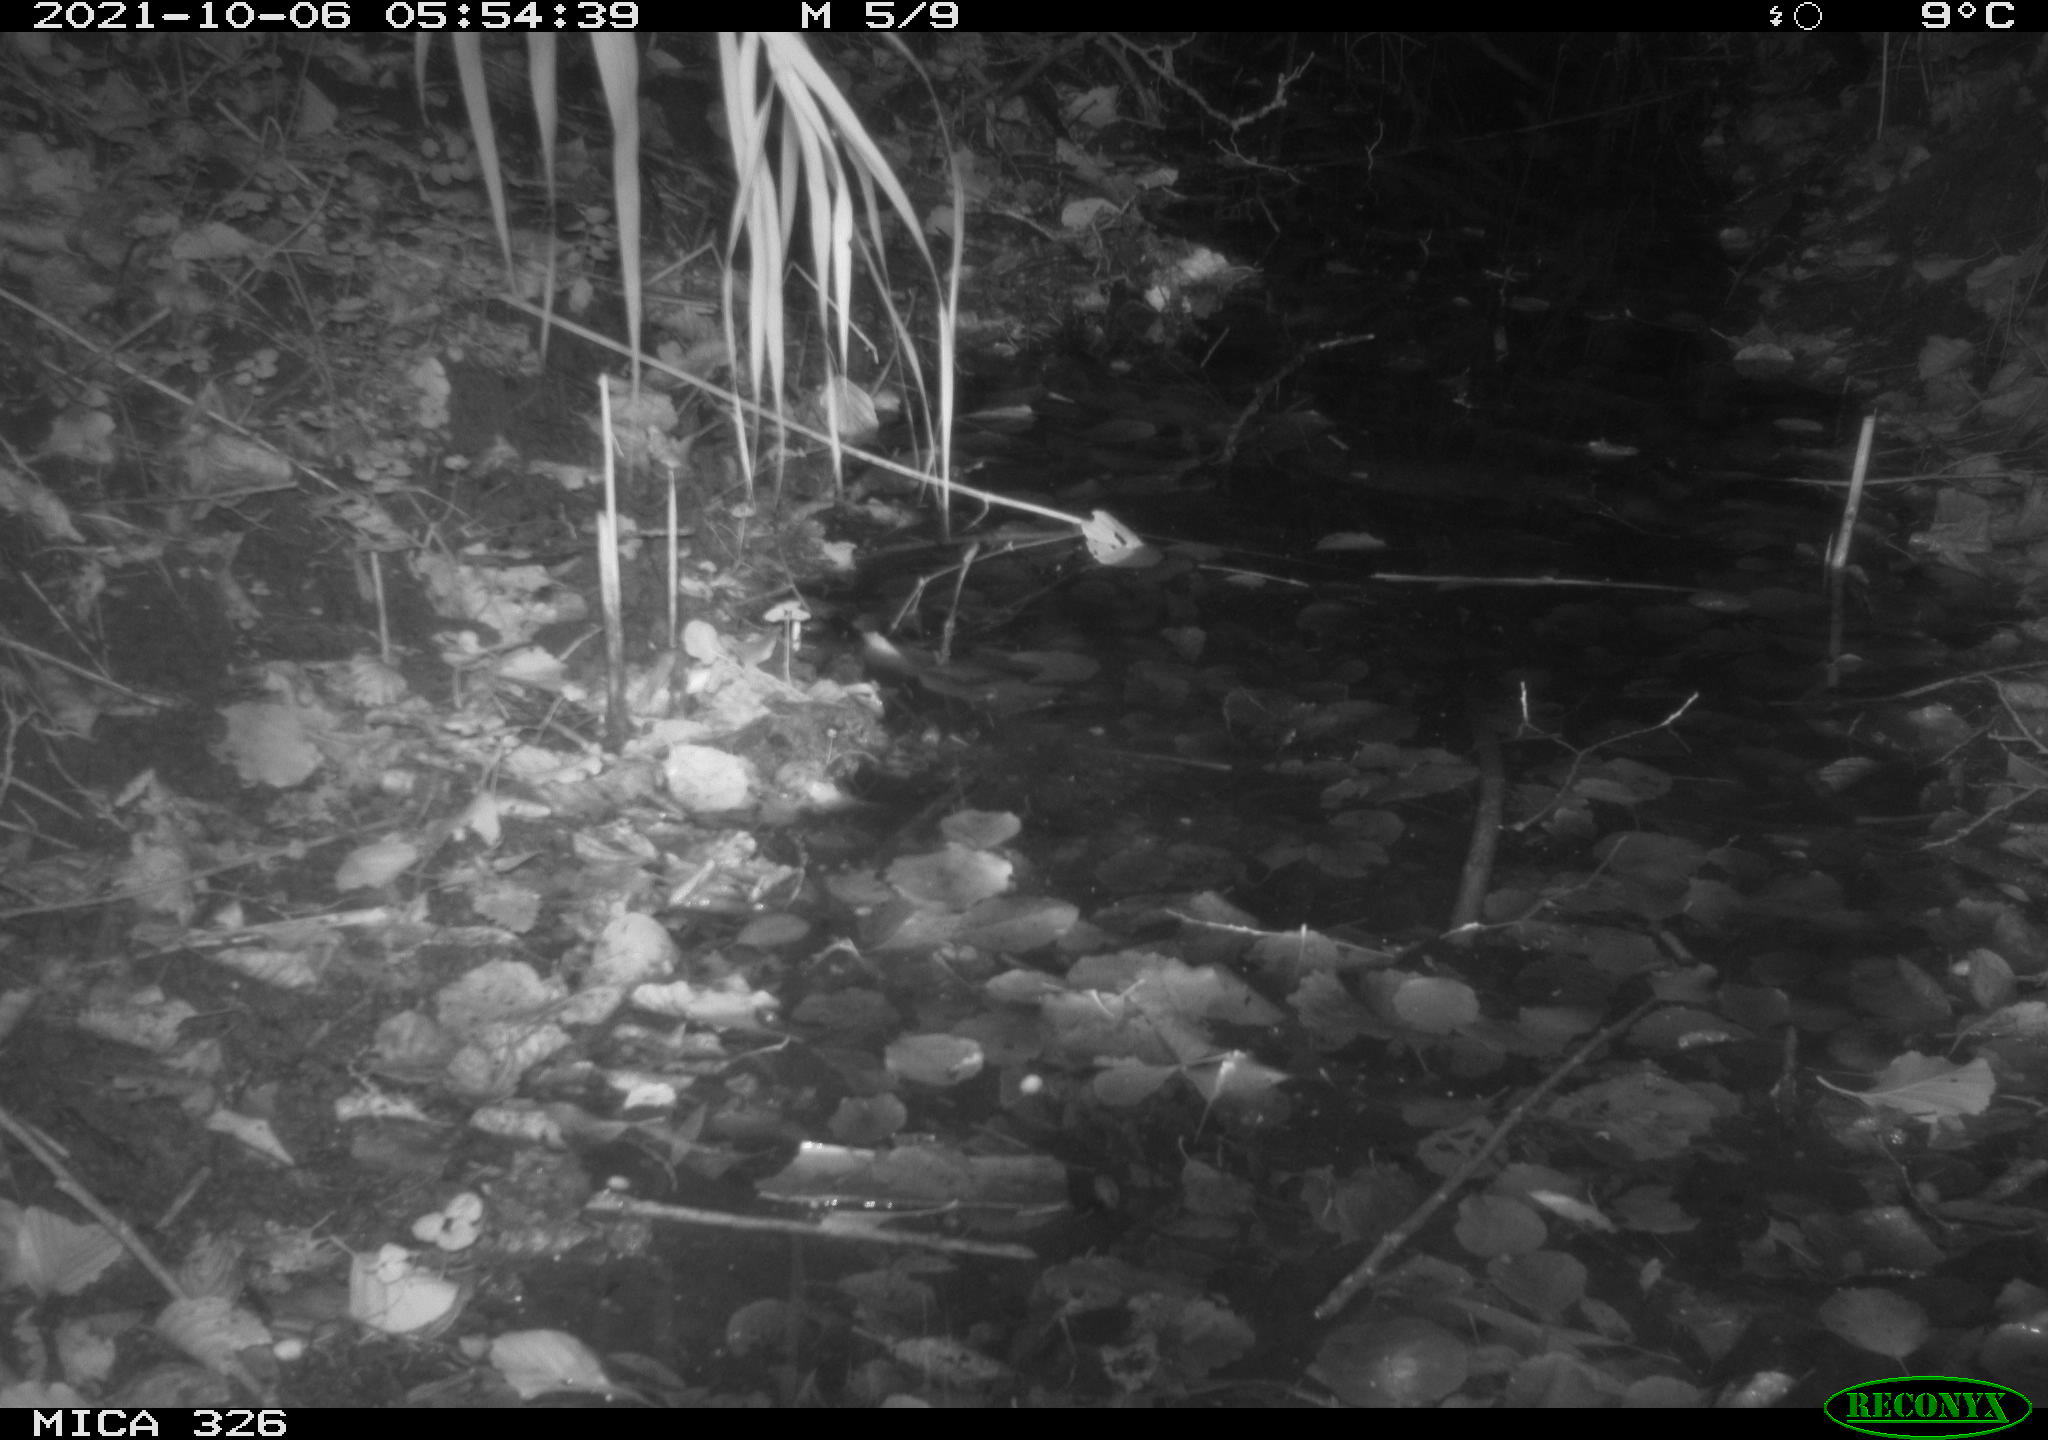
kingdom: Animalia
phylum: Chordata
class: Mammalia
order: Rodentia
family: Muridae
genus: Rattus
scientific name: Rattus norvegicus
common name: Brown rat
